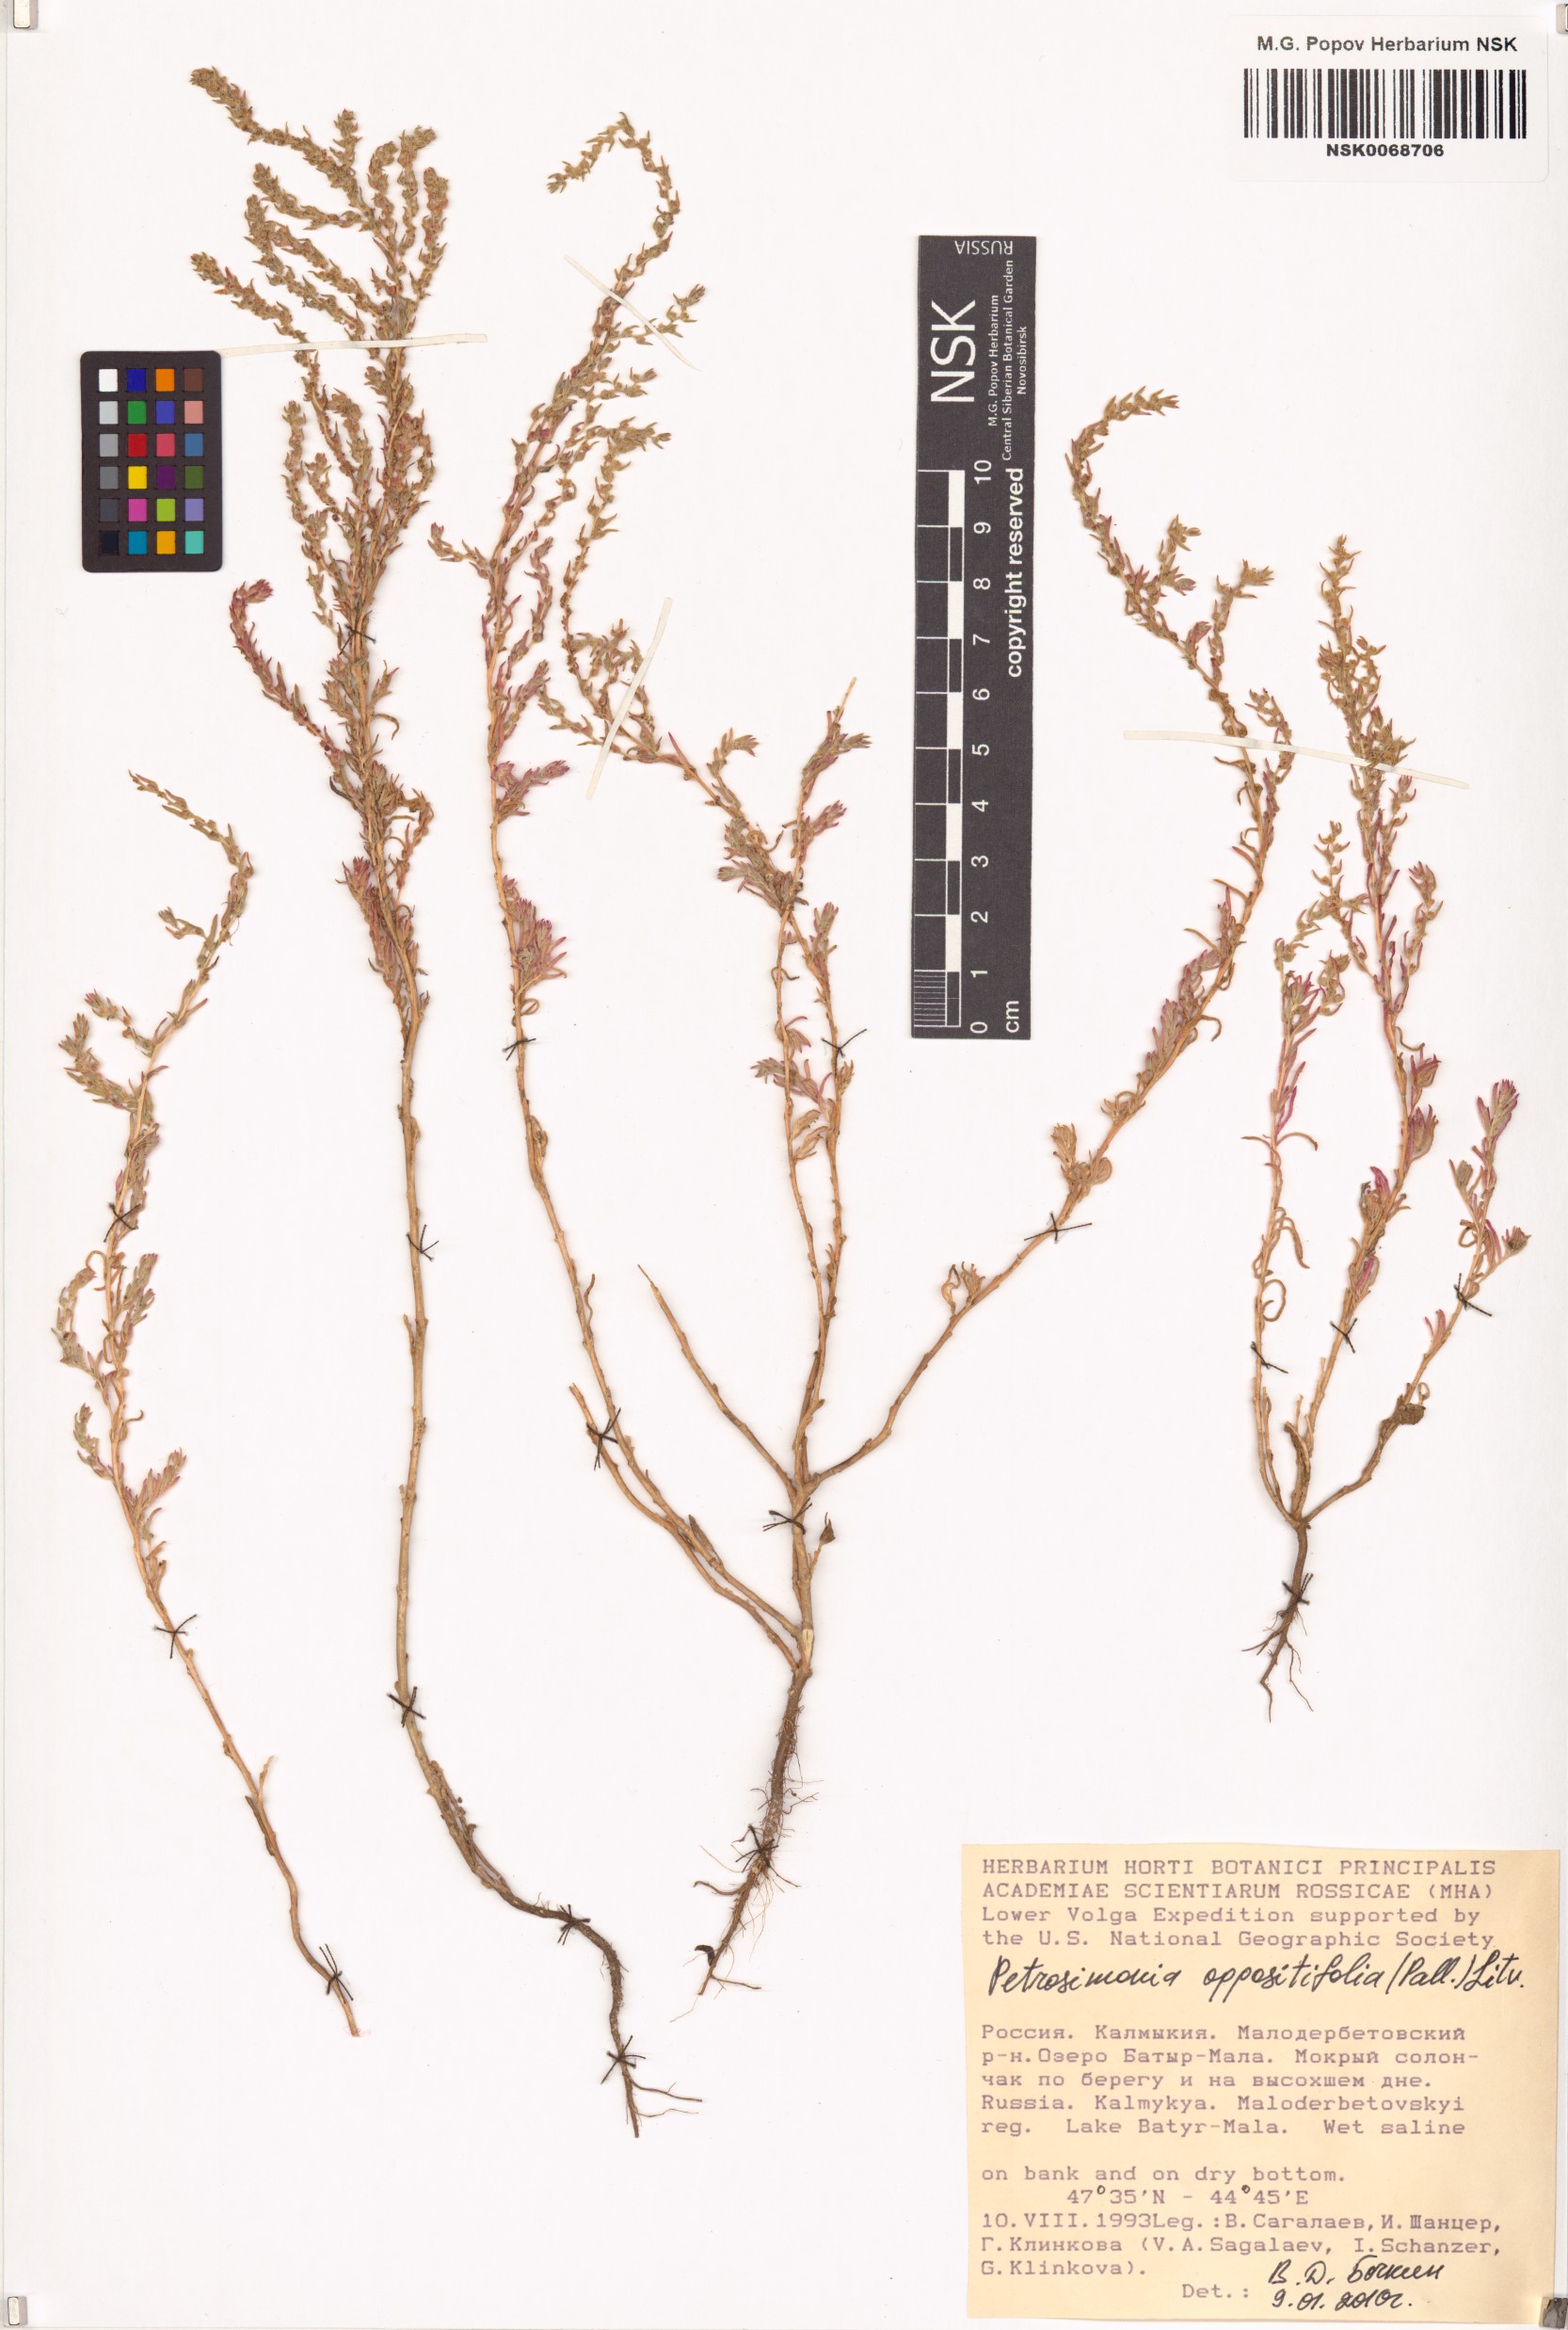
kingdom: Plantae
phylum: Tracheophyta
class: Magnoliopsida
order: Caryophyllales
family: Amaranthaceae
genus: Petrosimonia
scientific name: Petrosimonia oppositifolia
